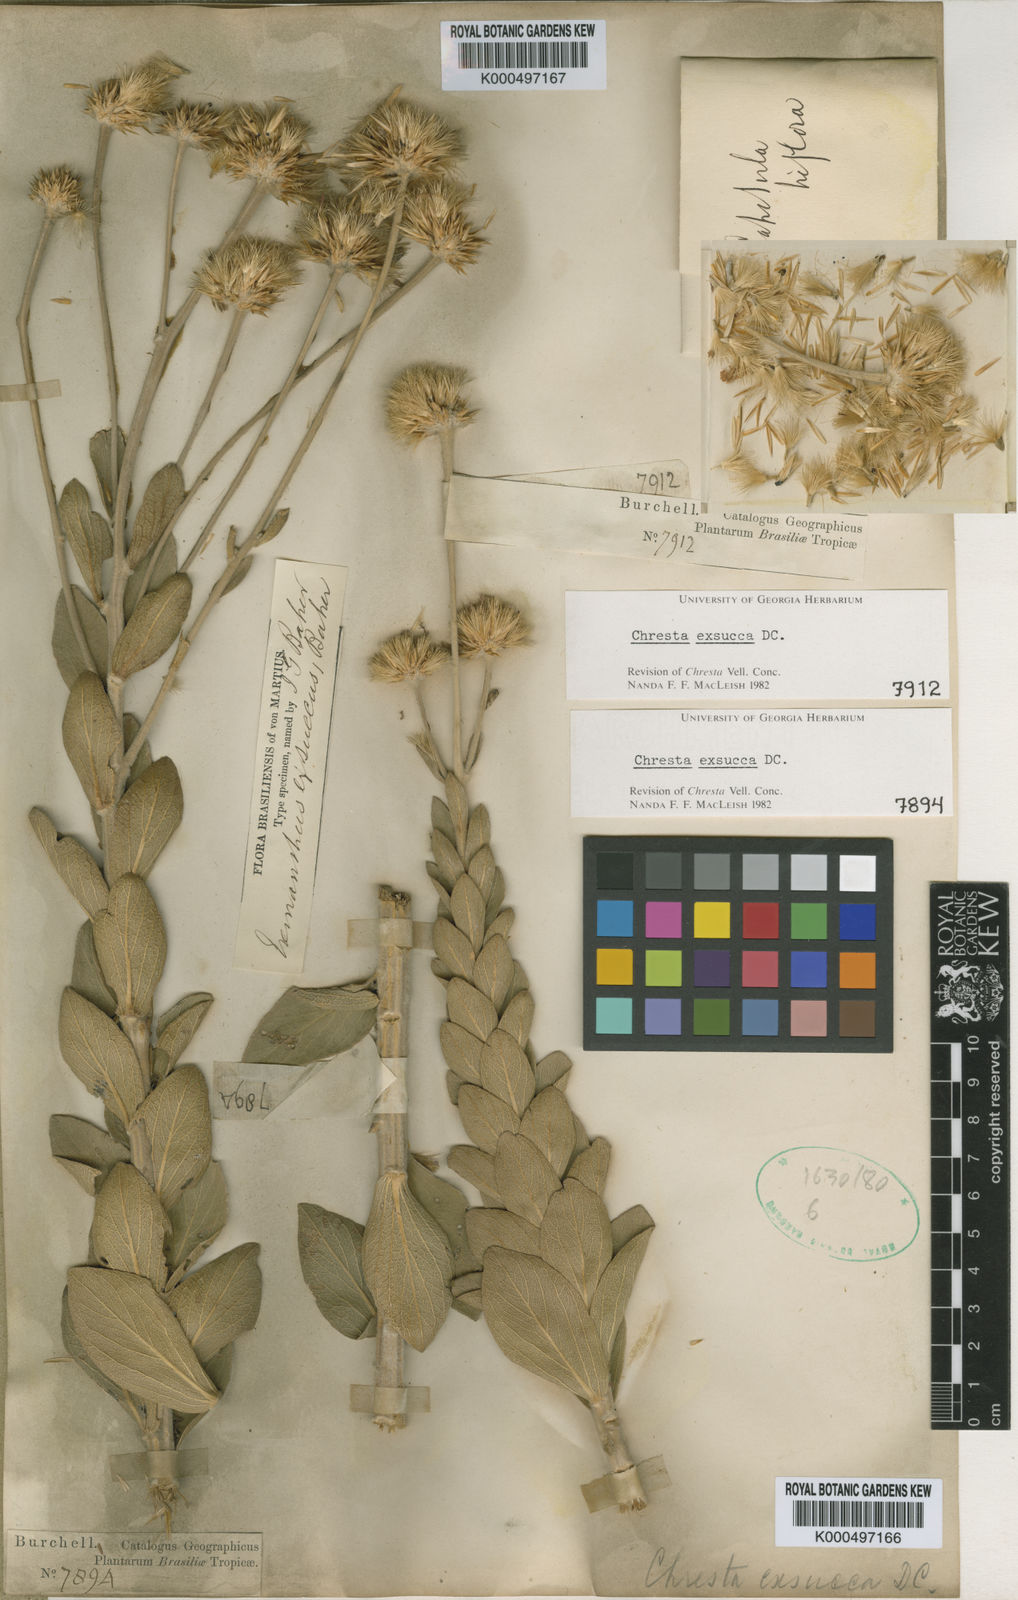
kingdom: Plantae
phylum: Tracheophyta
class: Magnoliopsida
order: Asterales
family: Asteraceae
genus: Chresta
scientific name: Chresta exsucca
